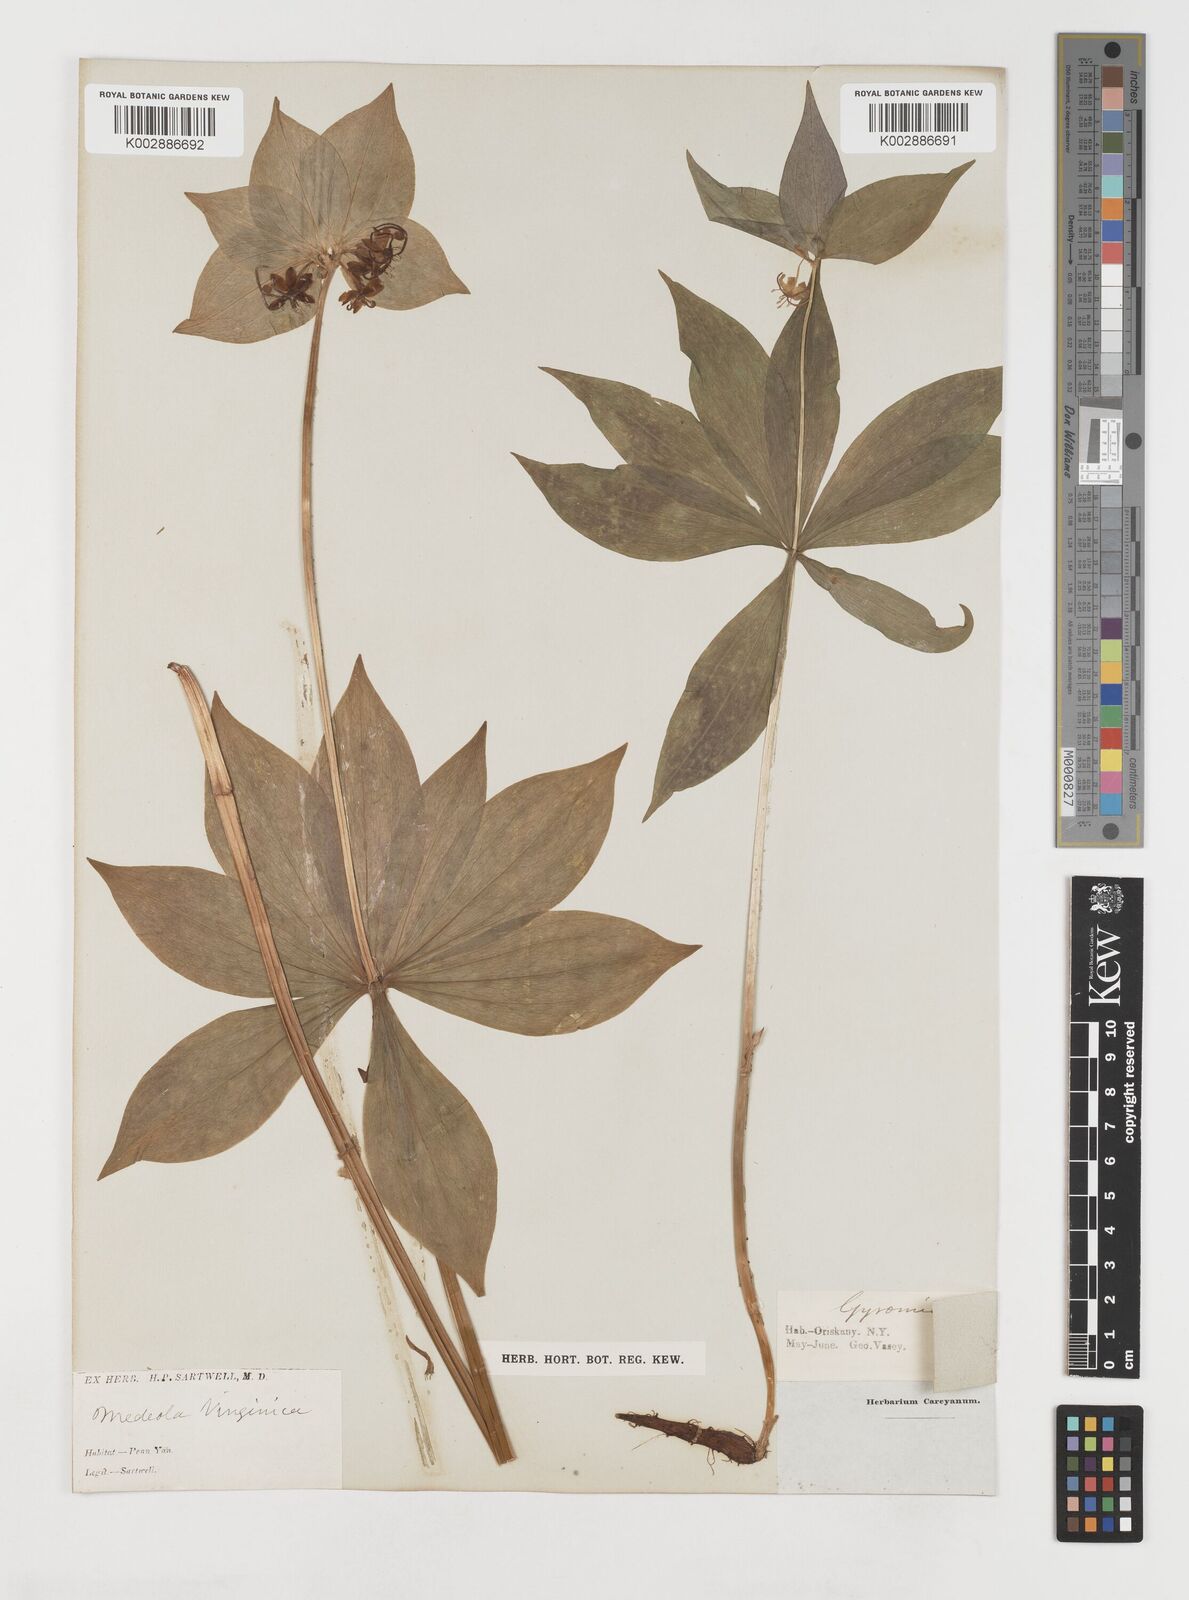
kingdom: Plantae
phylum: Tracheophyta
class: Liliopsida
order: Liliales
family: Liliaceae
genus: Medeola
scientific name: Medeola virginiana
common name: Indian cucumber-root
